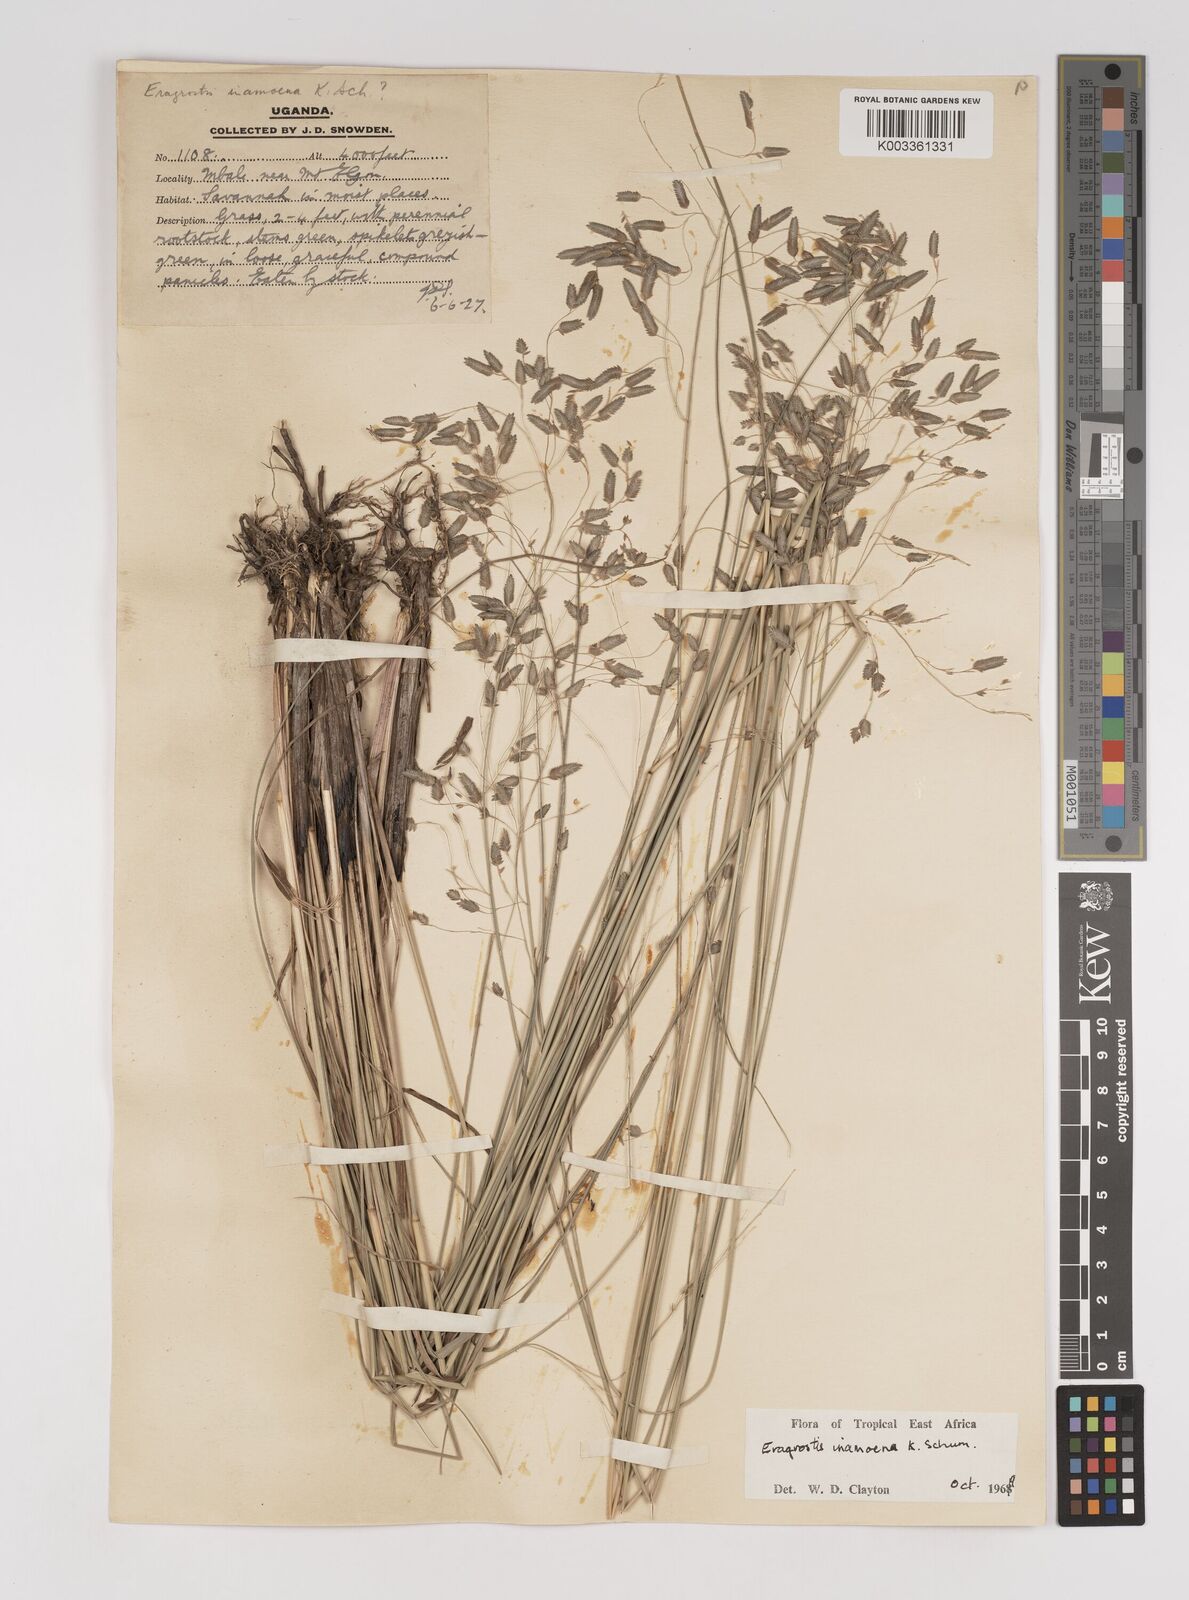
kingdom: Plantae
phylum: Tracheophyta
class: Liliopsida
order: Poales
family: Poaceae
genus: Eragrostis
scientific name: Eragrostis inamoena
